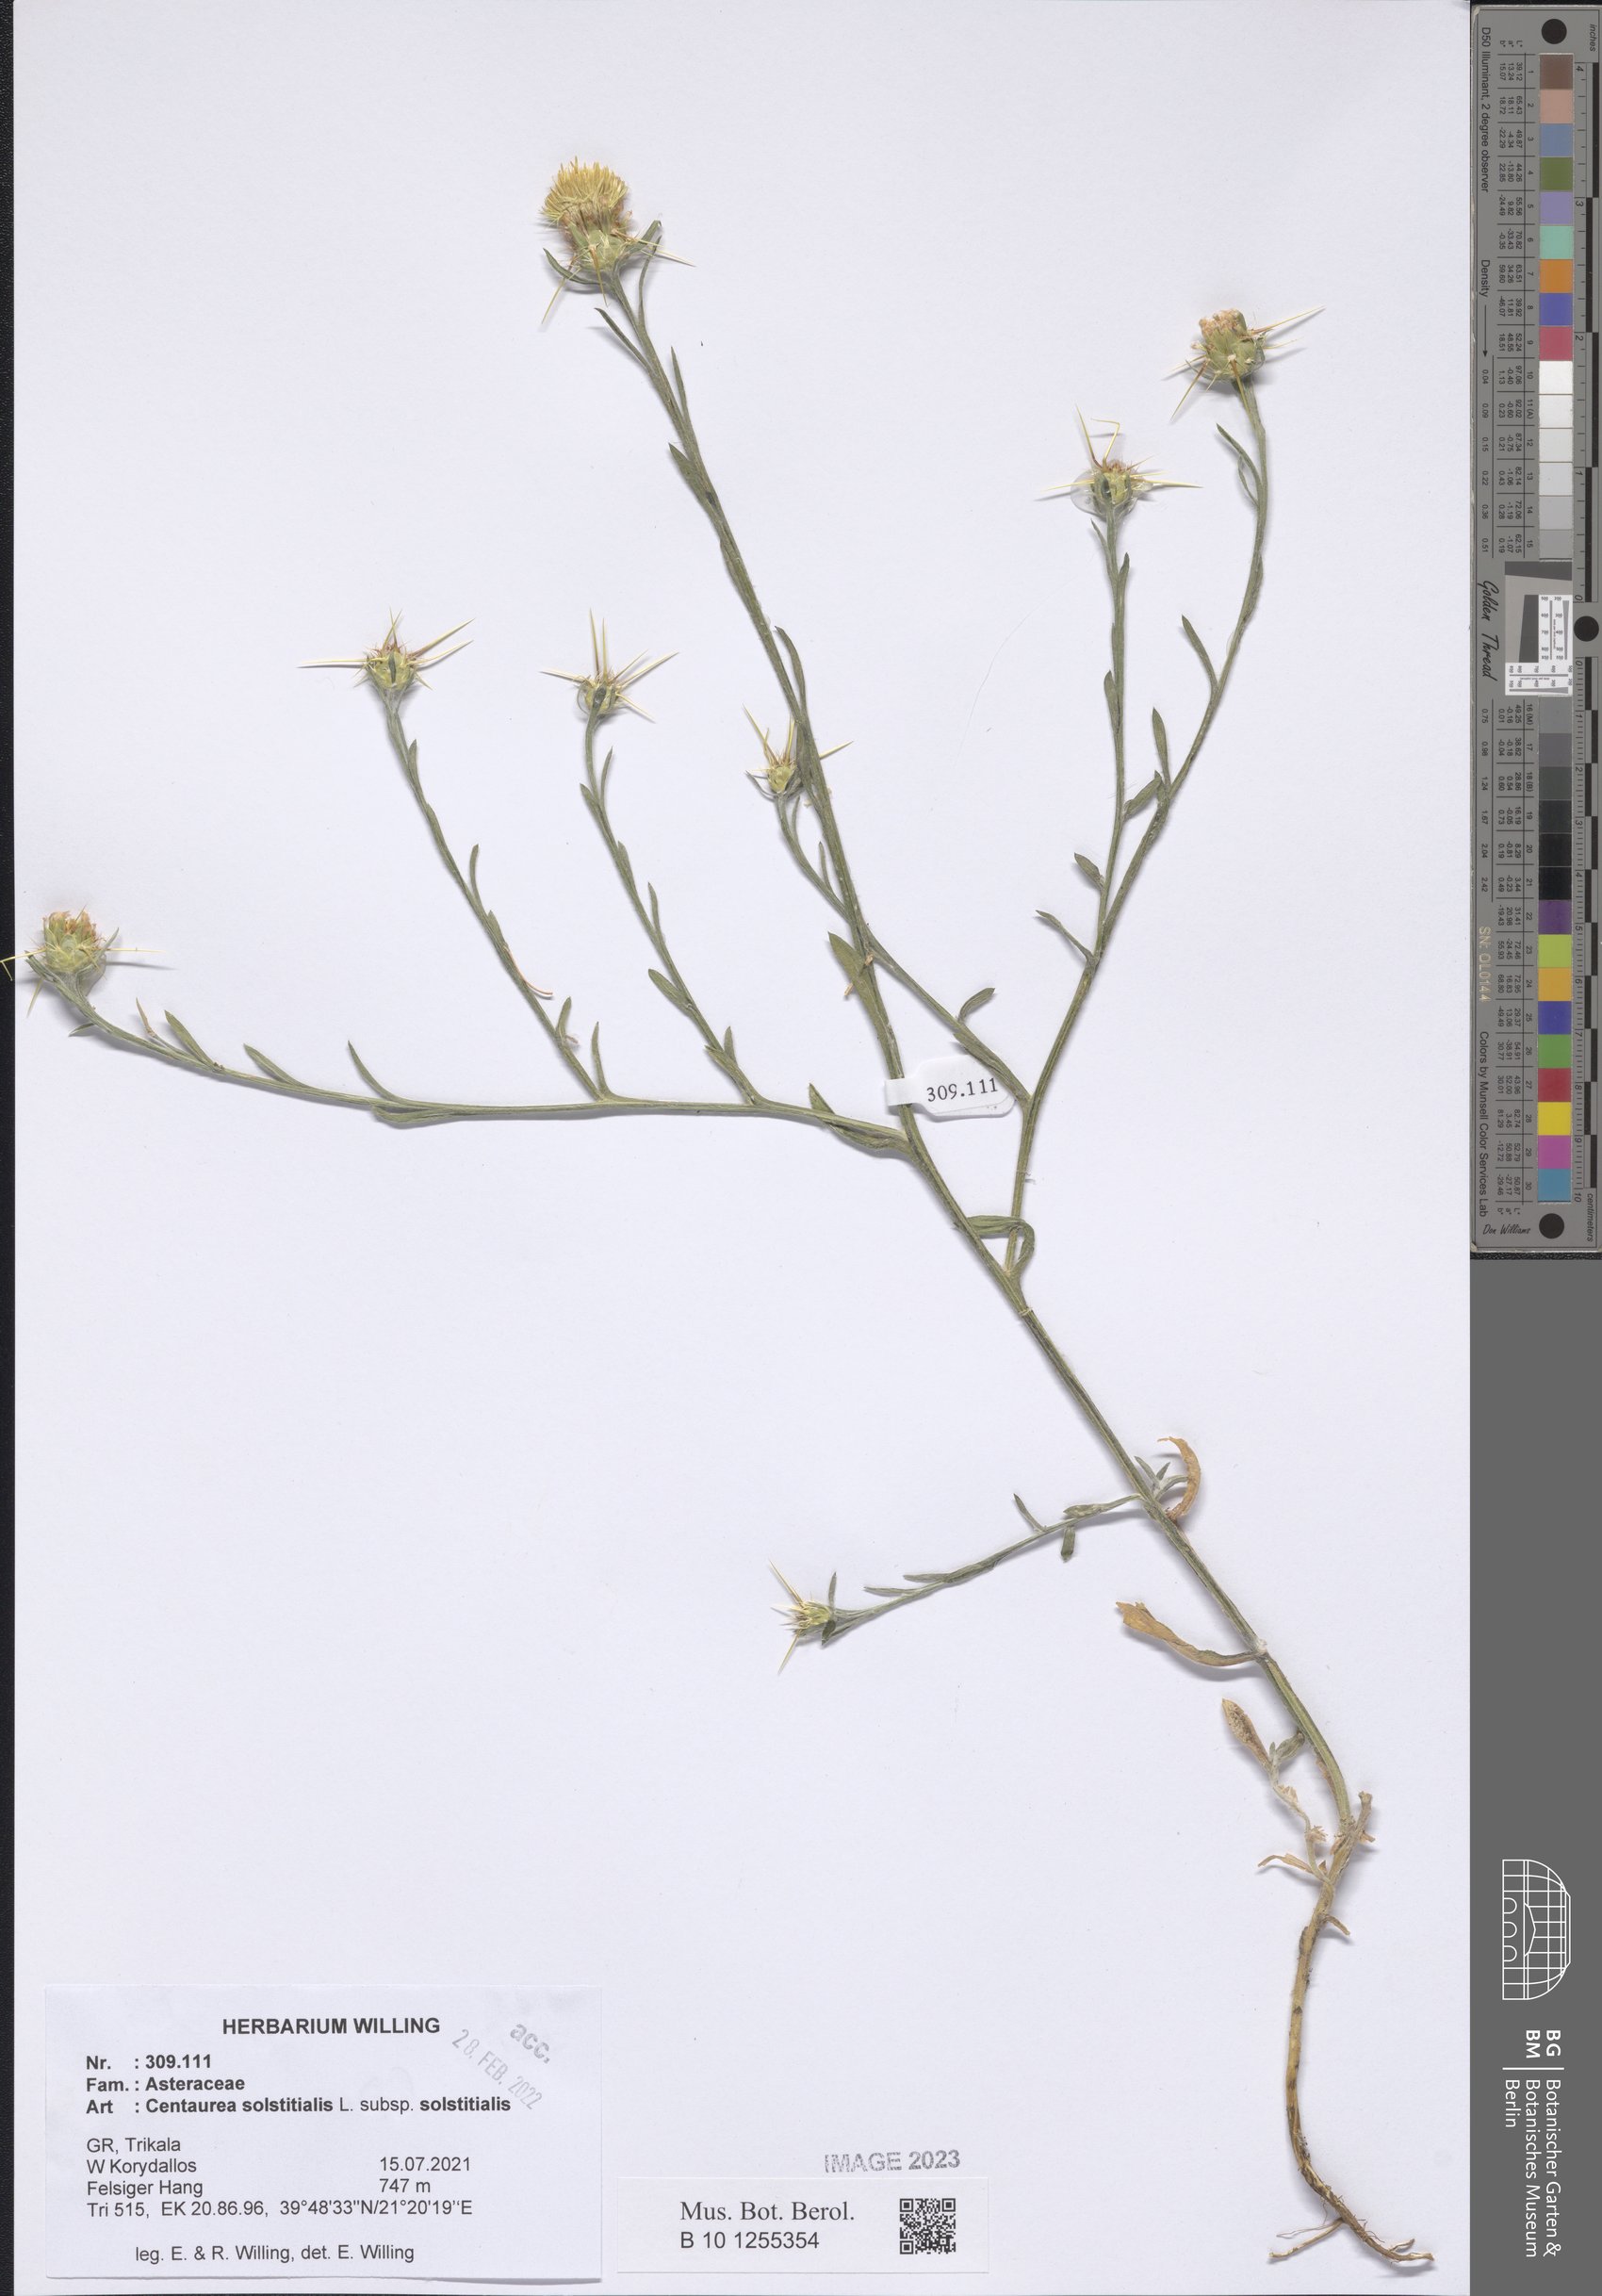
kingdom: Plantae
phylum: Tracheophyta
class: Magnoliopsida
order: Asterales
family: Asteraceae
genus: Centaurea
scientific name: Centaurea solstitialis
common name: Yellow star-thistle
